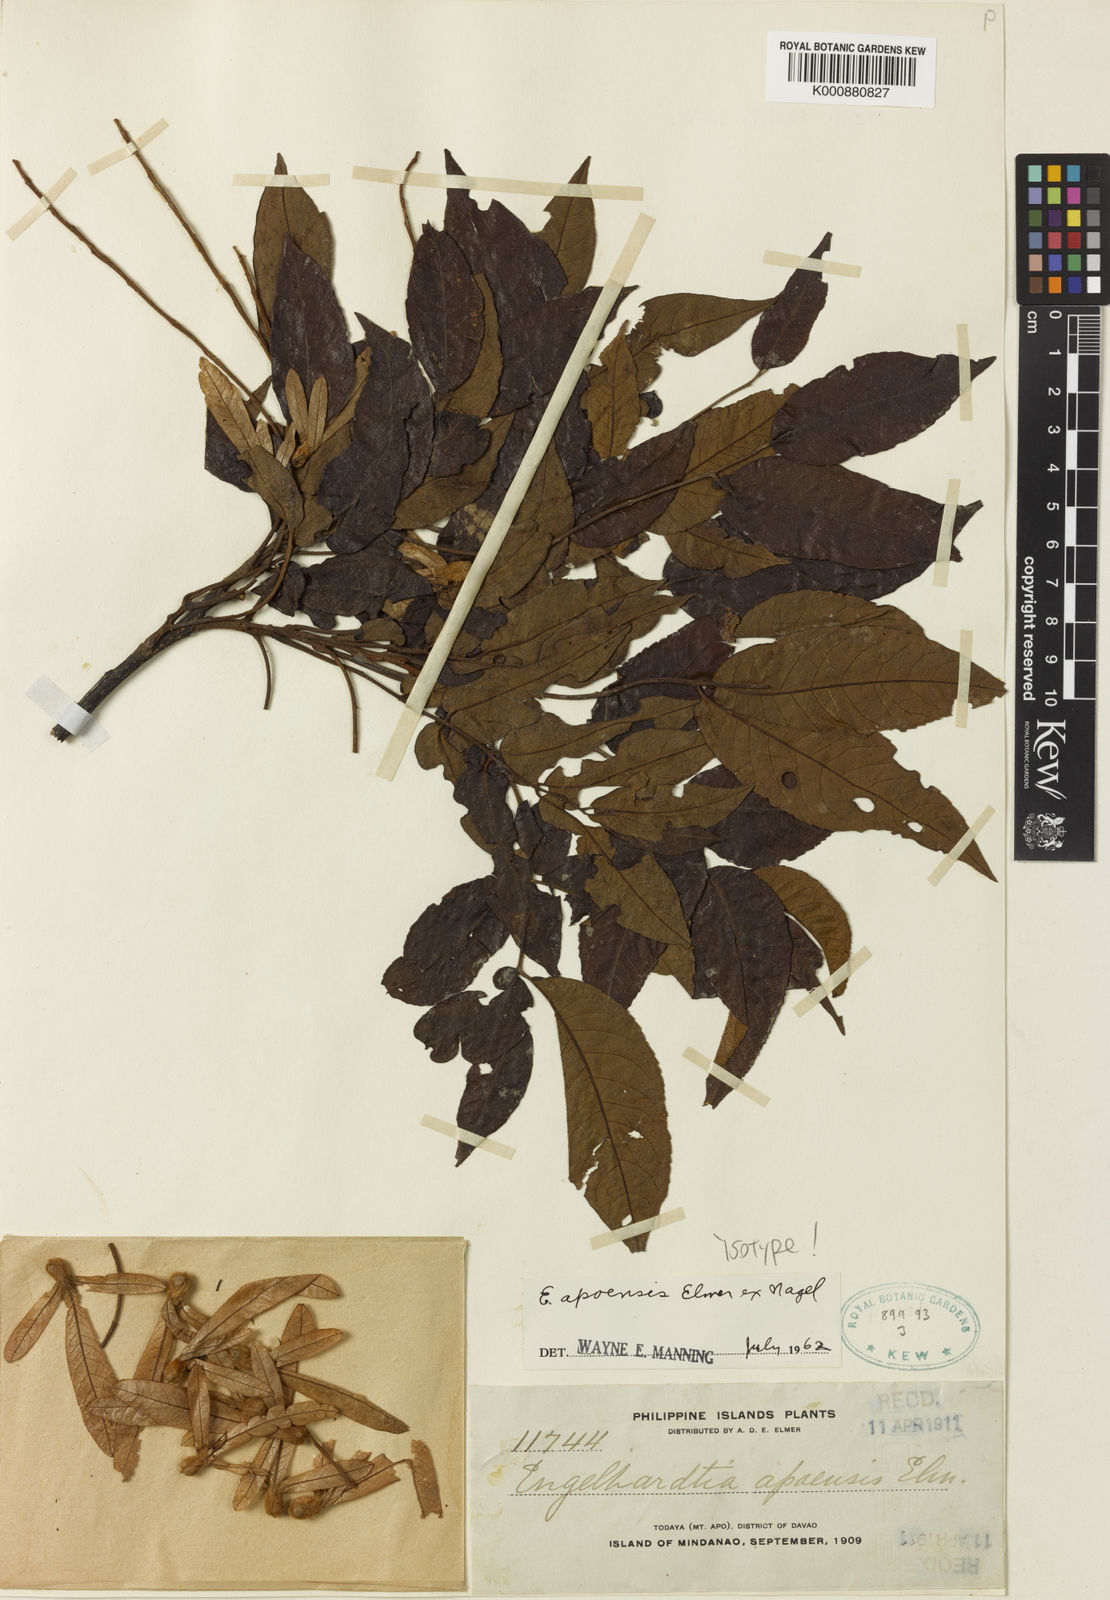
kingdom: Plantae
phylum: Tracheophyta
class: Magnoliopsida
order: Fagales
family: Juglandaceae
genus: Engelhardia
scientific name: Engelhardia apoensis
